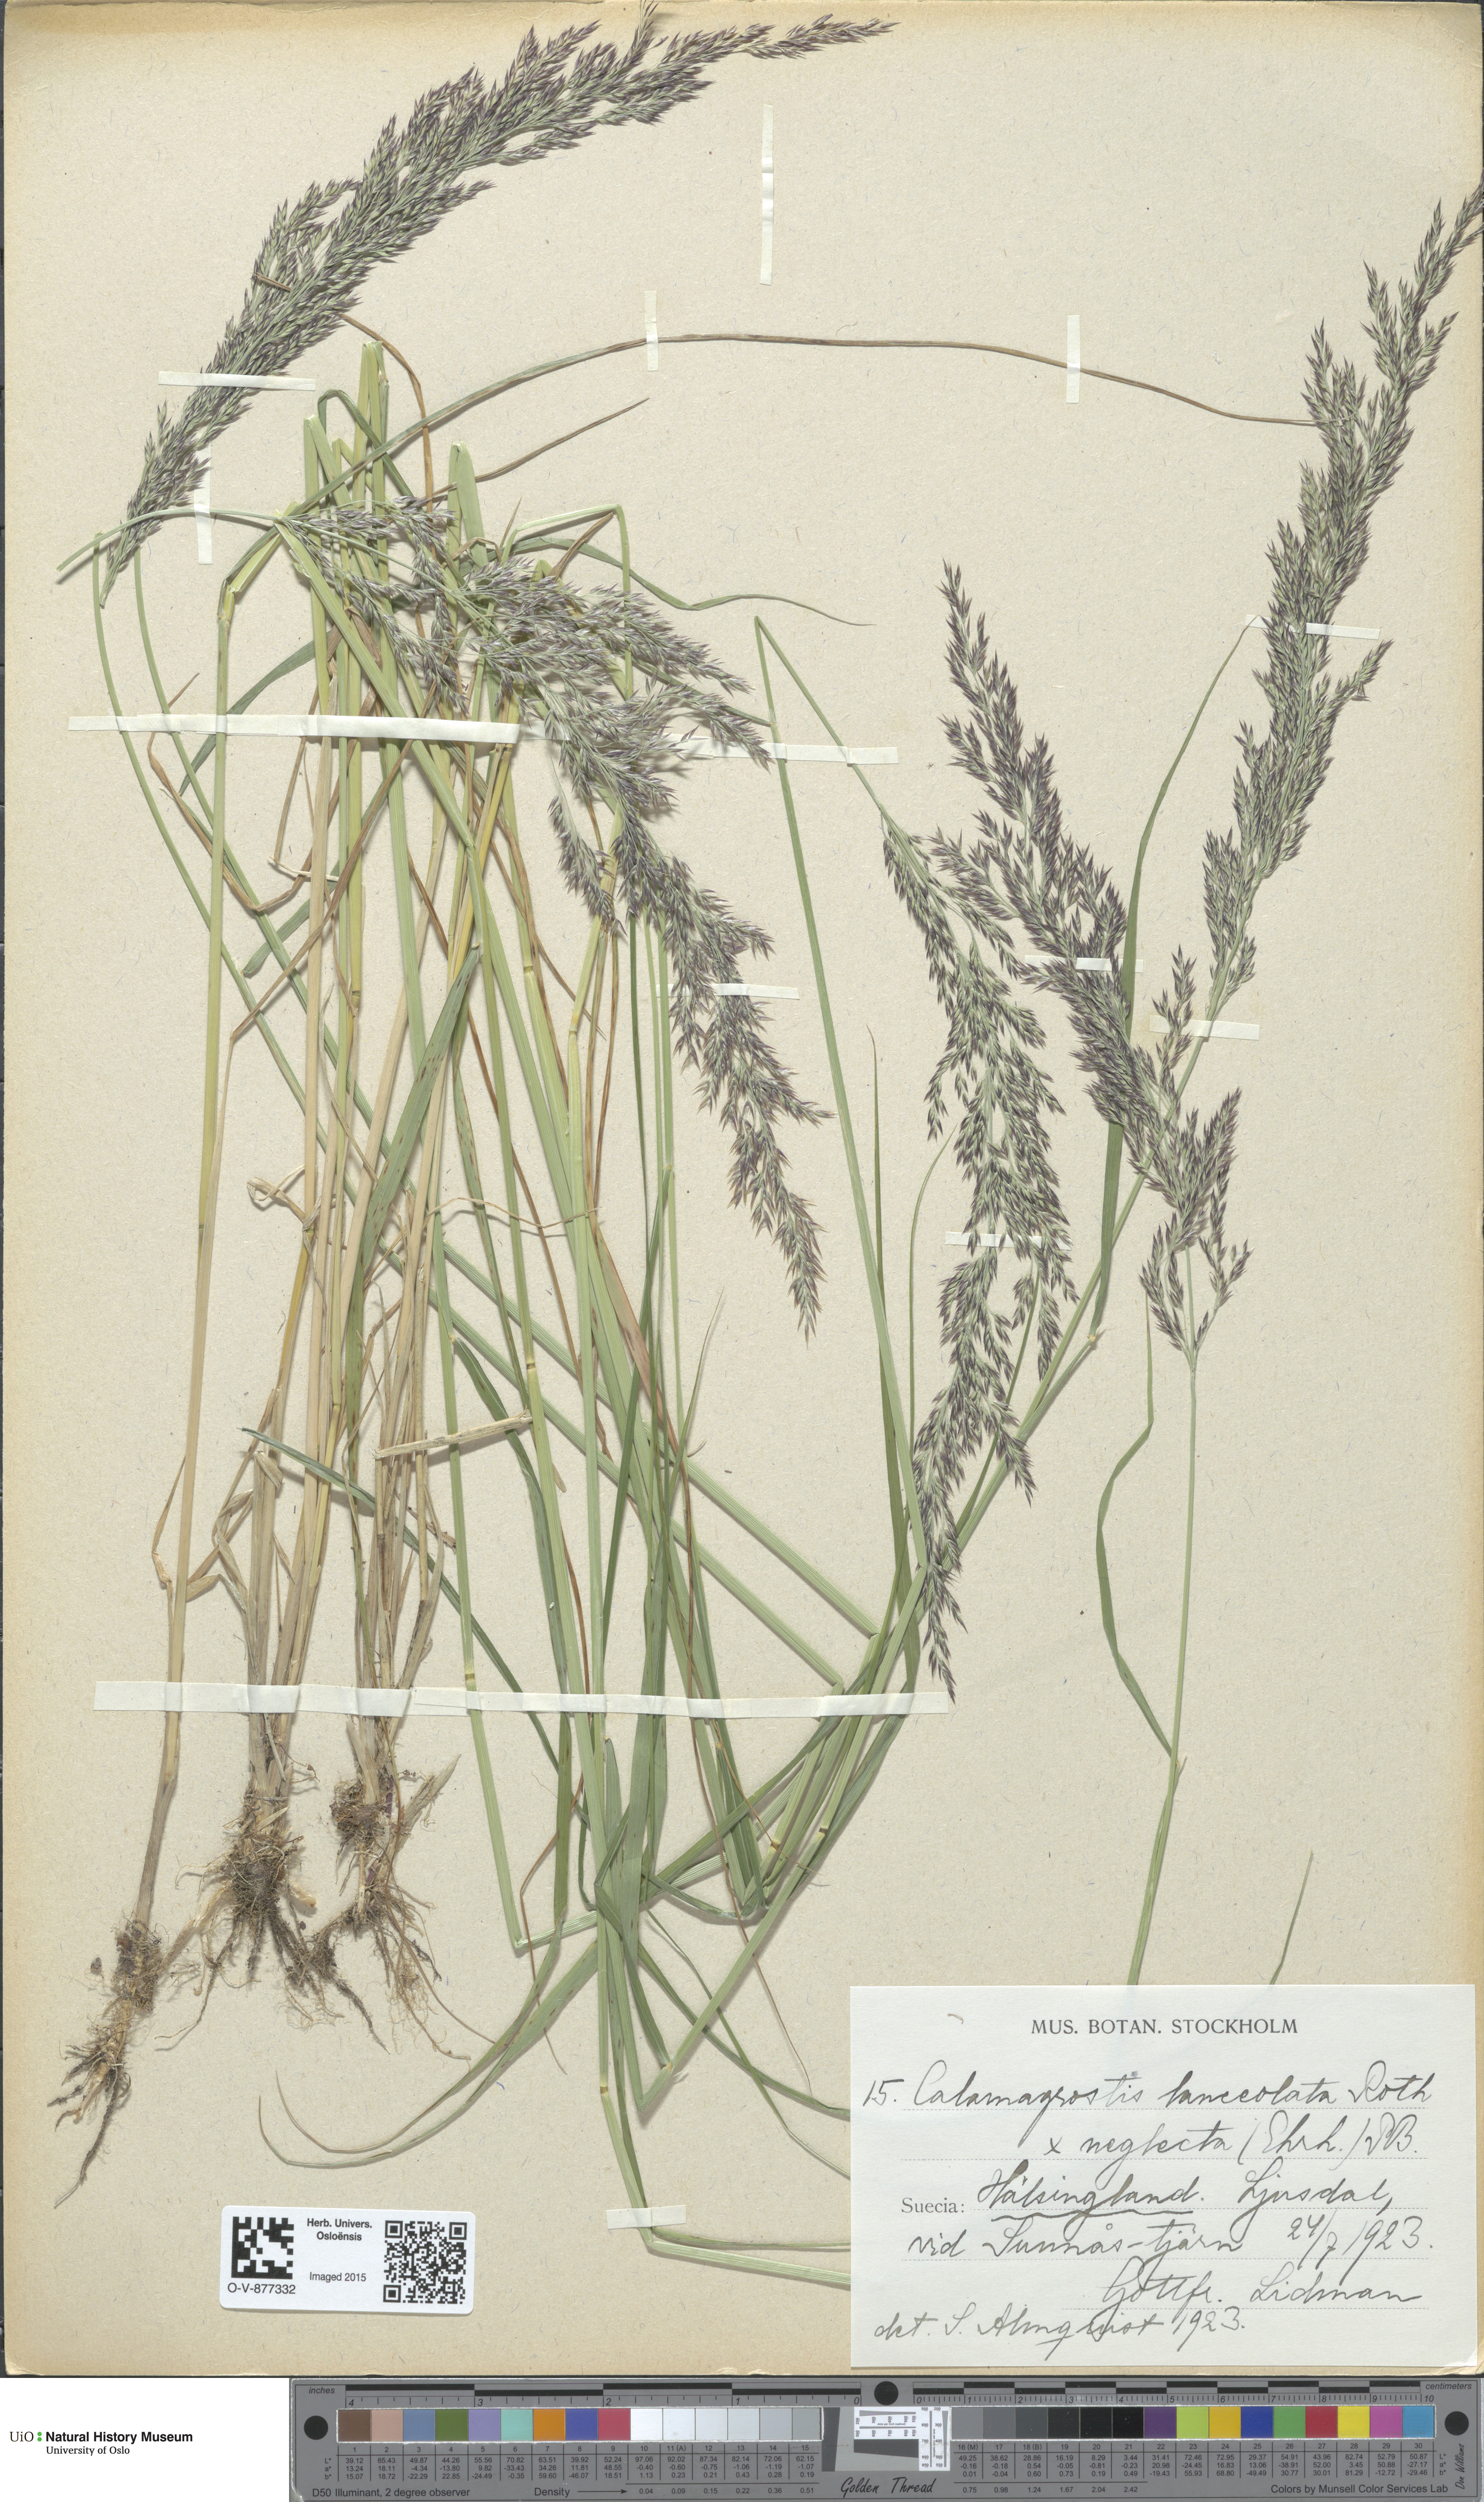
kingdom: Plantae
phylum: Tracheophyta
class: Liliopsida
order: Poales
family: Poaceae
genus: Calamagrostis
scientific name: Calamagrostis
